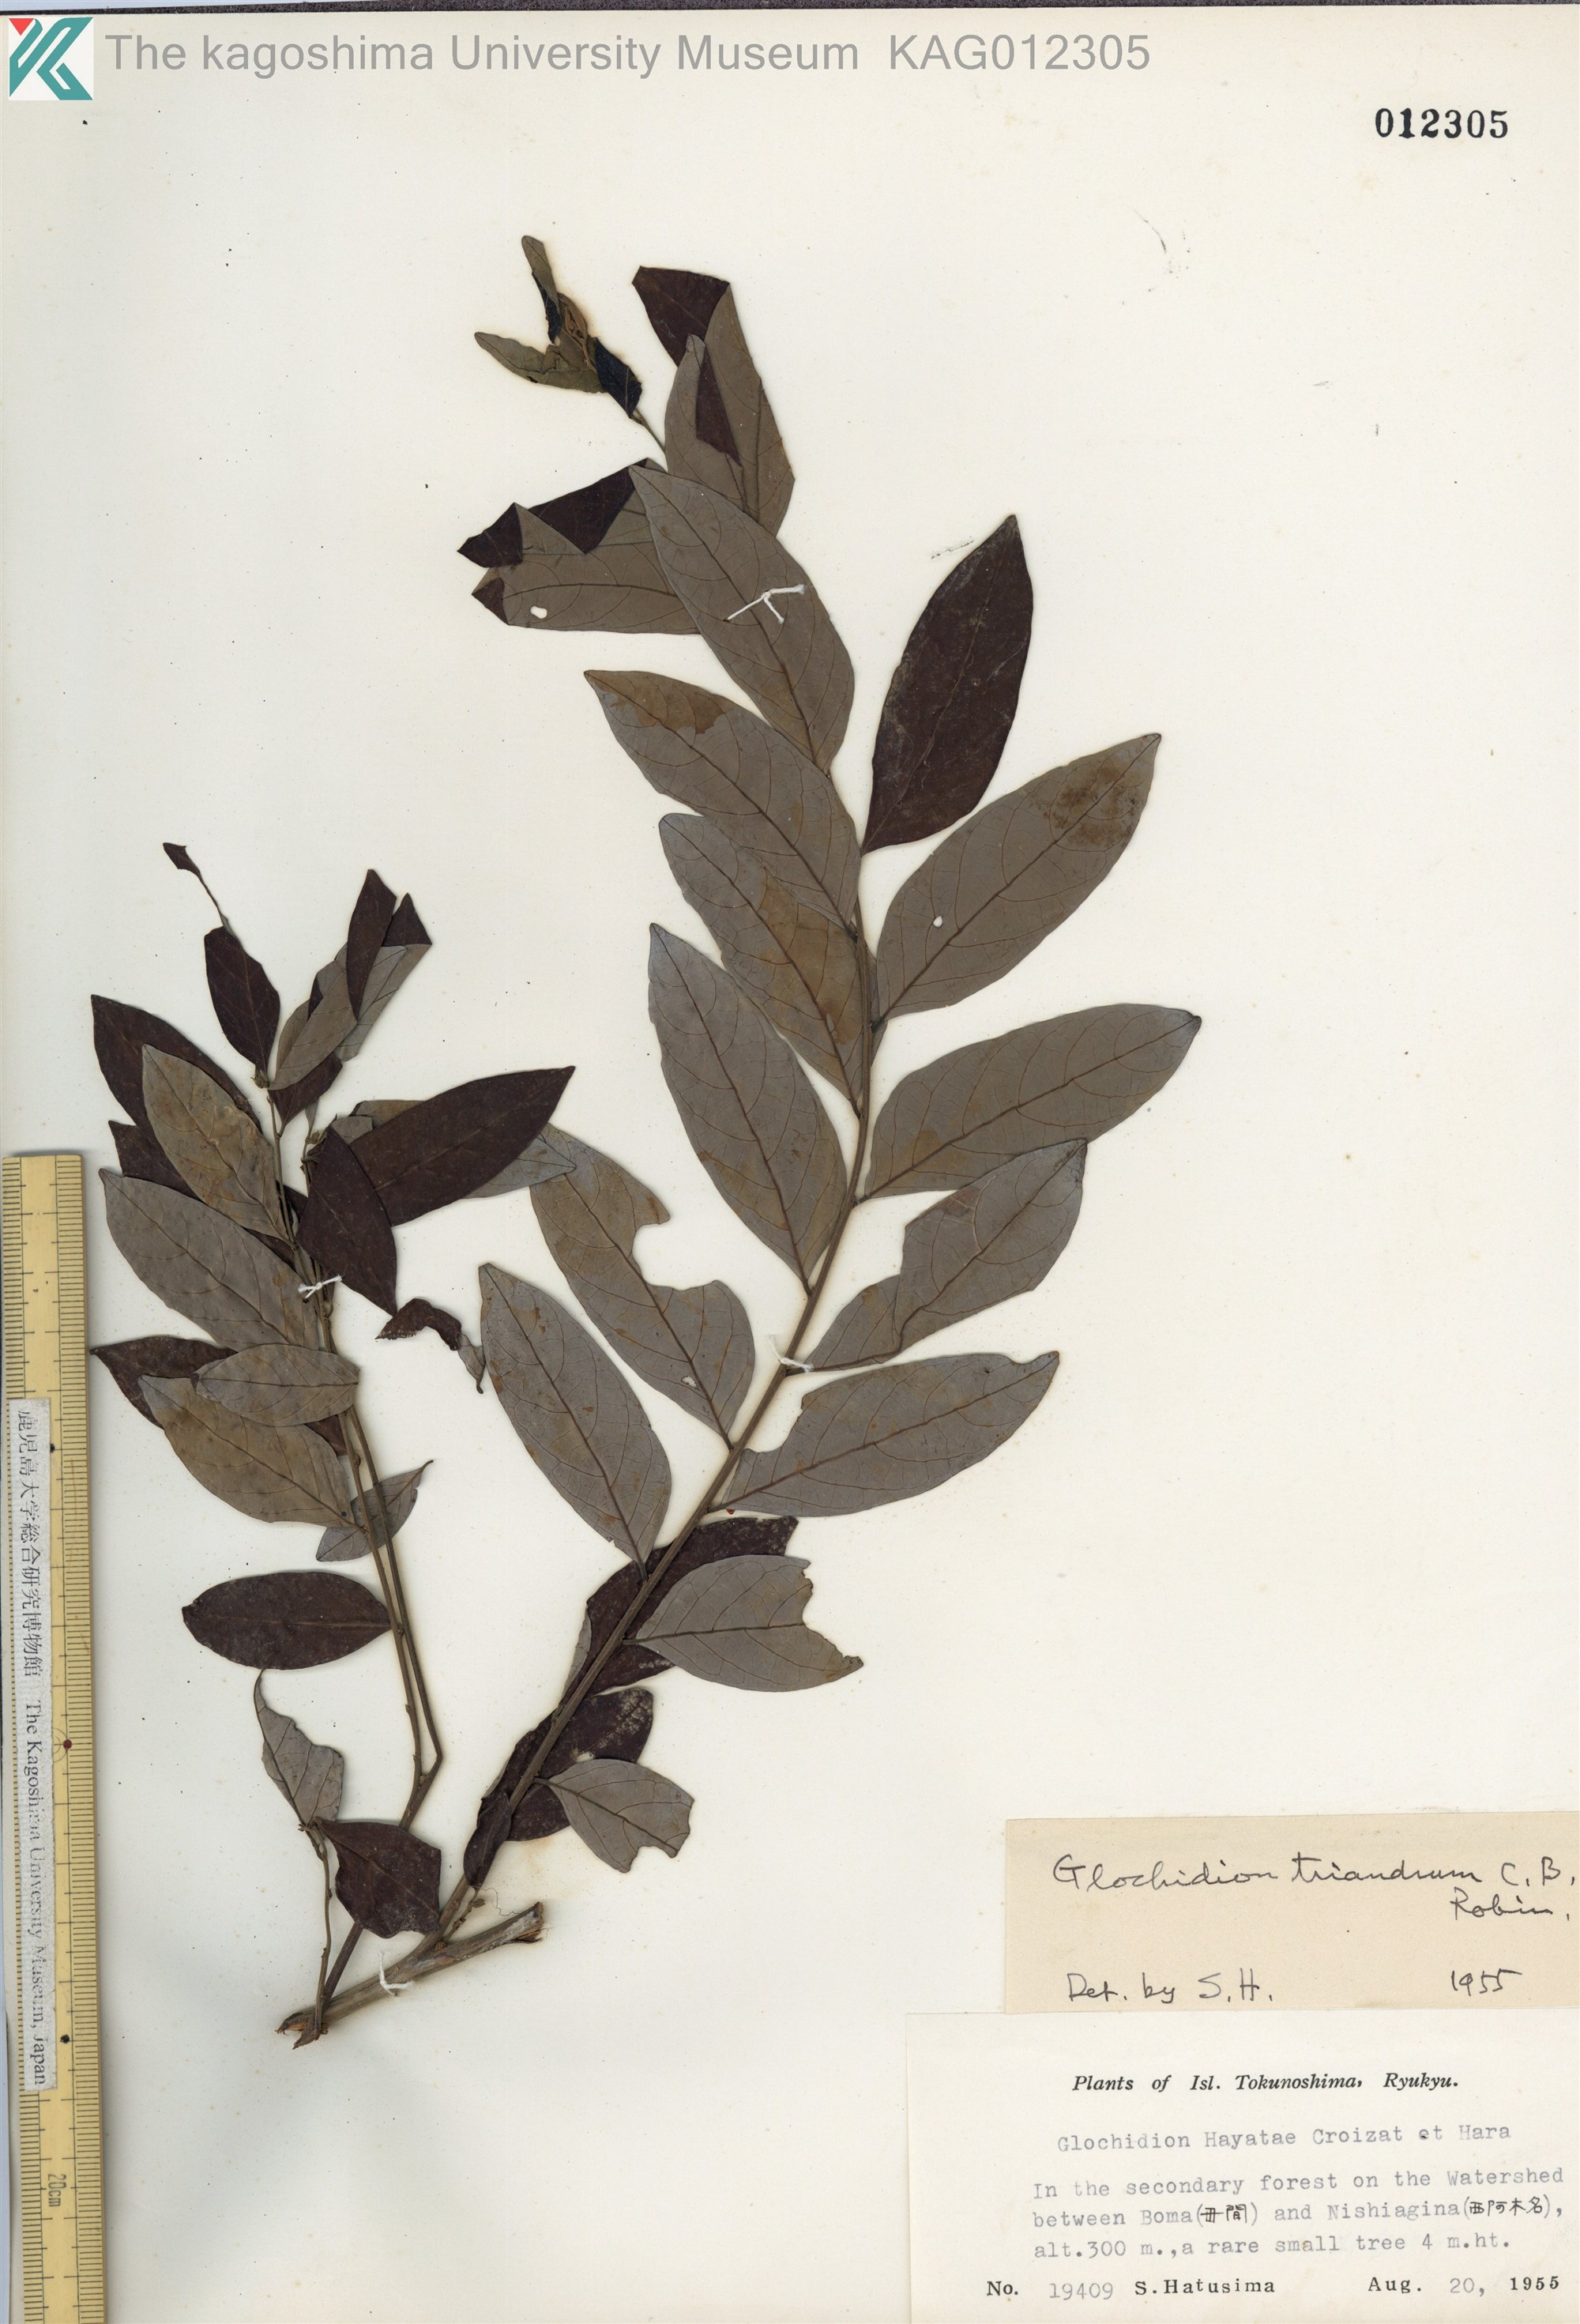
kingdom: Plantae
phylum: Tracheophyta
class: Magnoliopsida
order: Malpighiales
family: Phyllanthaceae
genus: Glochidion
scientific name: Glochidion triandrum
